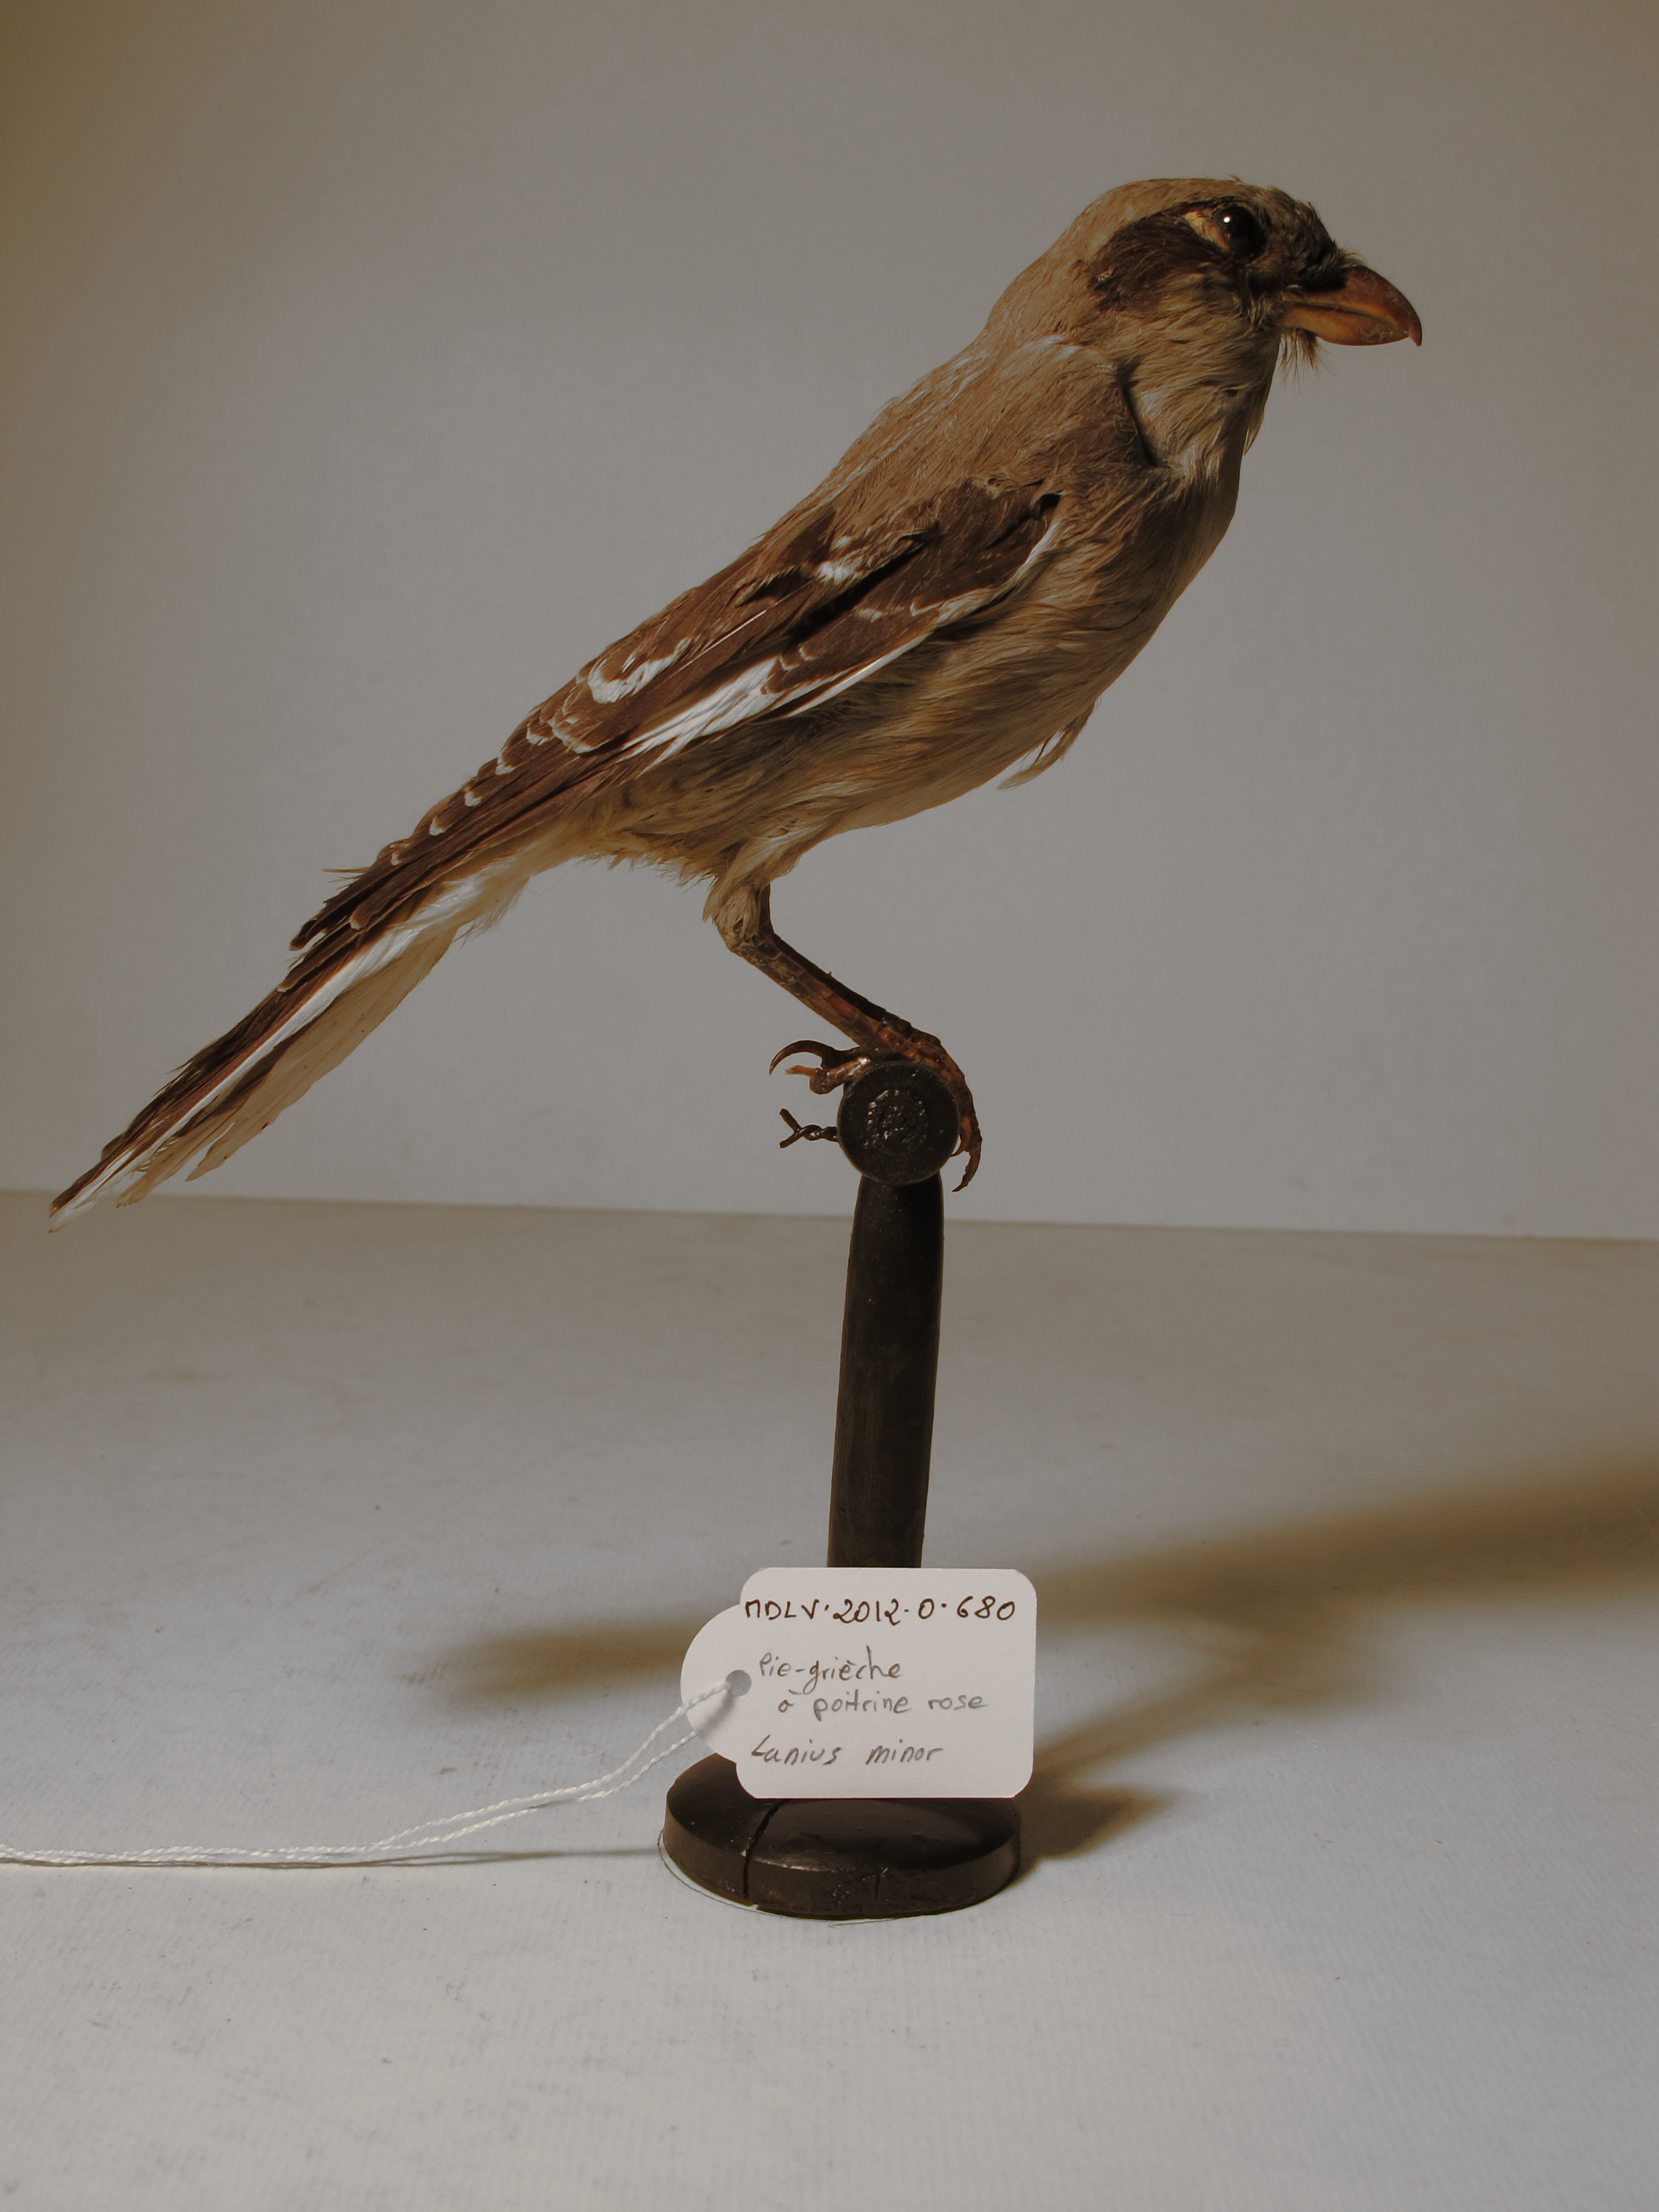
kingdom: Animalia
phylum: Chordata
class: Aves
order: Passeriformes
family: Laniidae
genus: Lanius
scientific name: Lanius minor
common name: Lesser Grey Shrike
